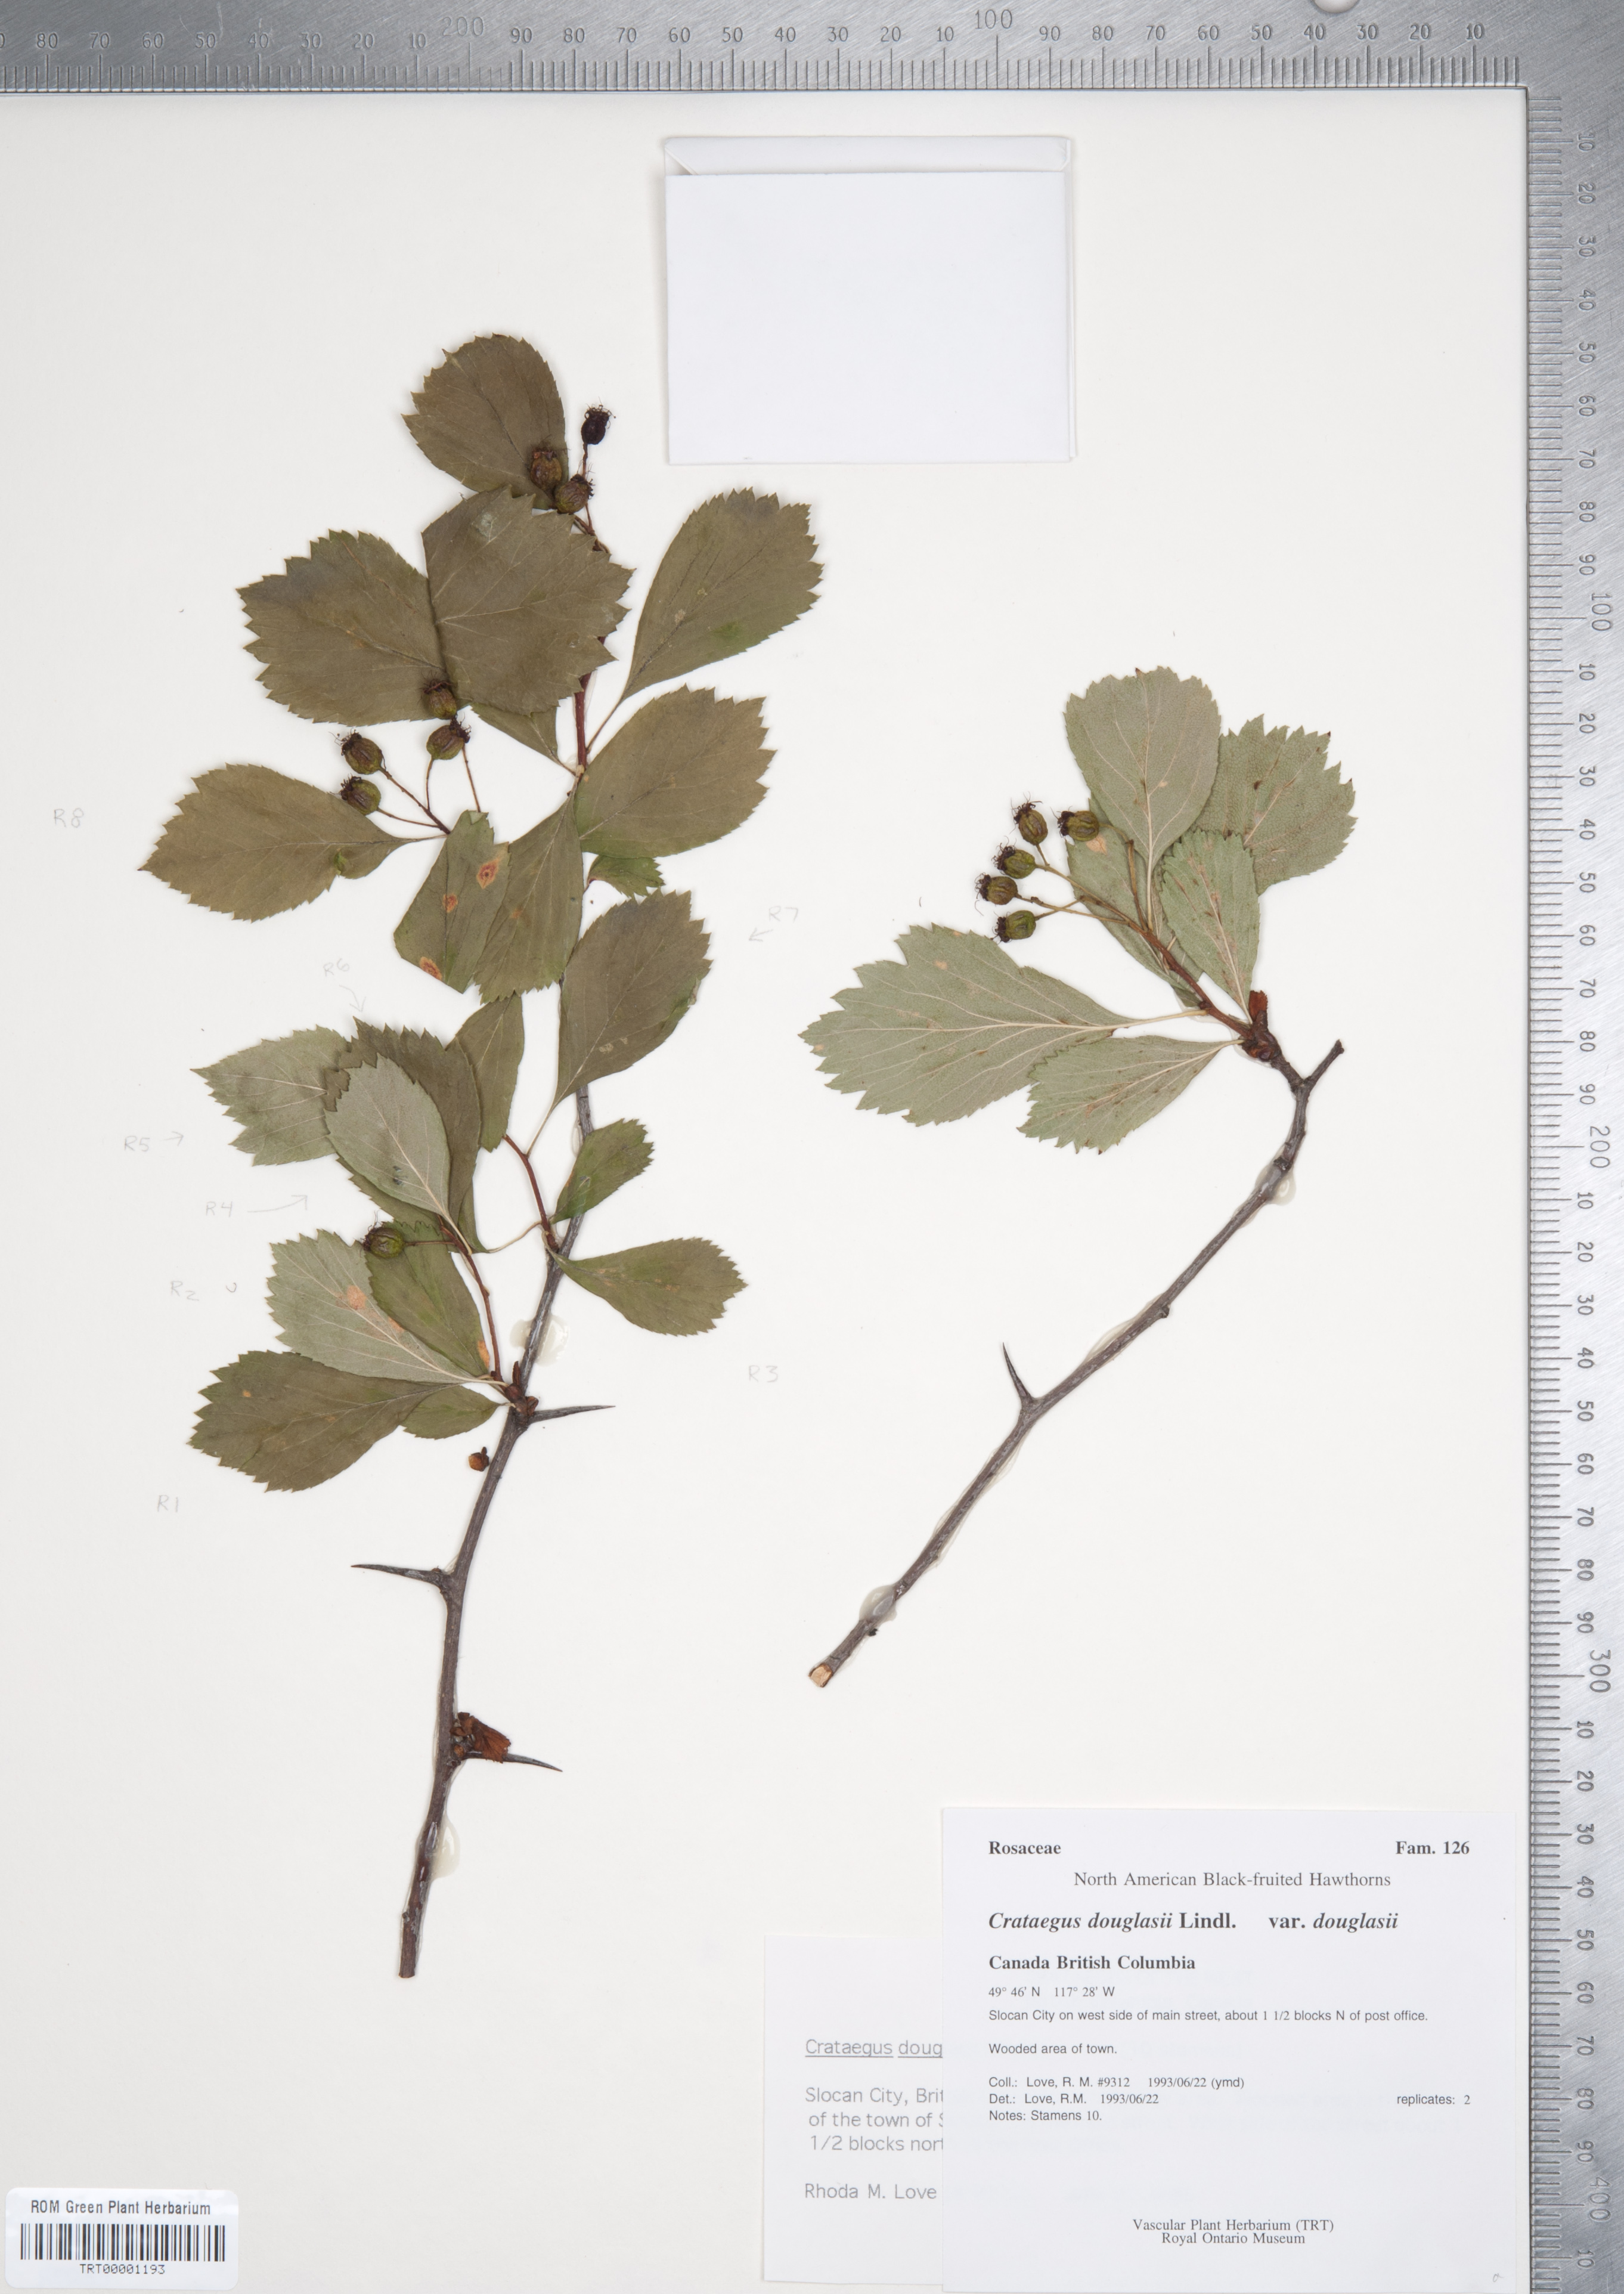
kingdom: Plantae
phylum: Tracheophyta
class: Magnoliopsida
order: Rosales
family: Rosaceae
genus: Crataegus
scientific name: Crataegus douglasii
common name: Black hawthorn
